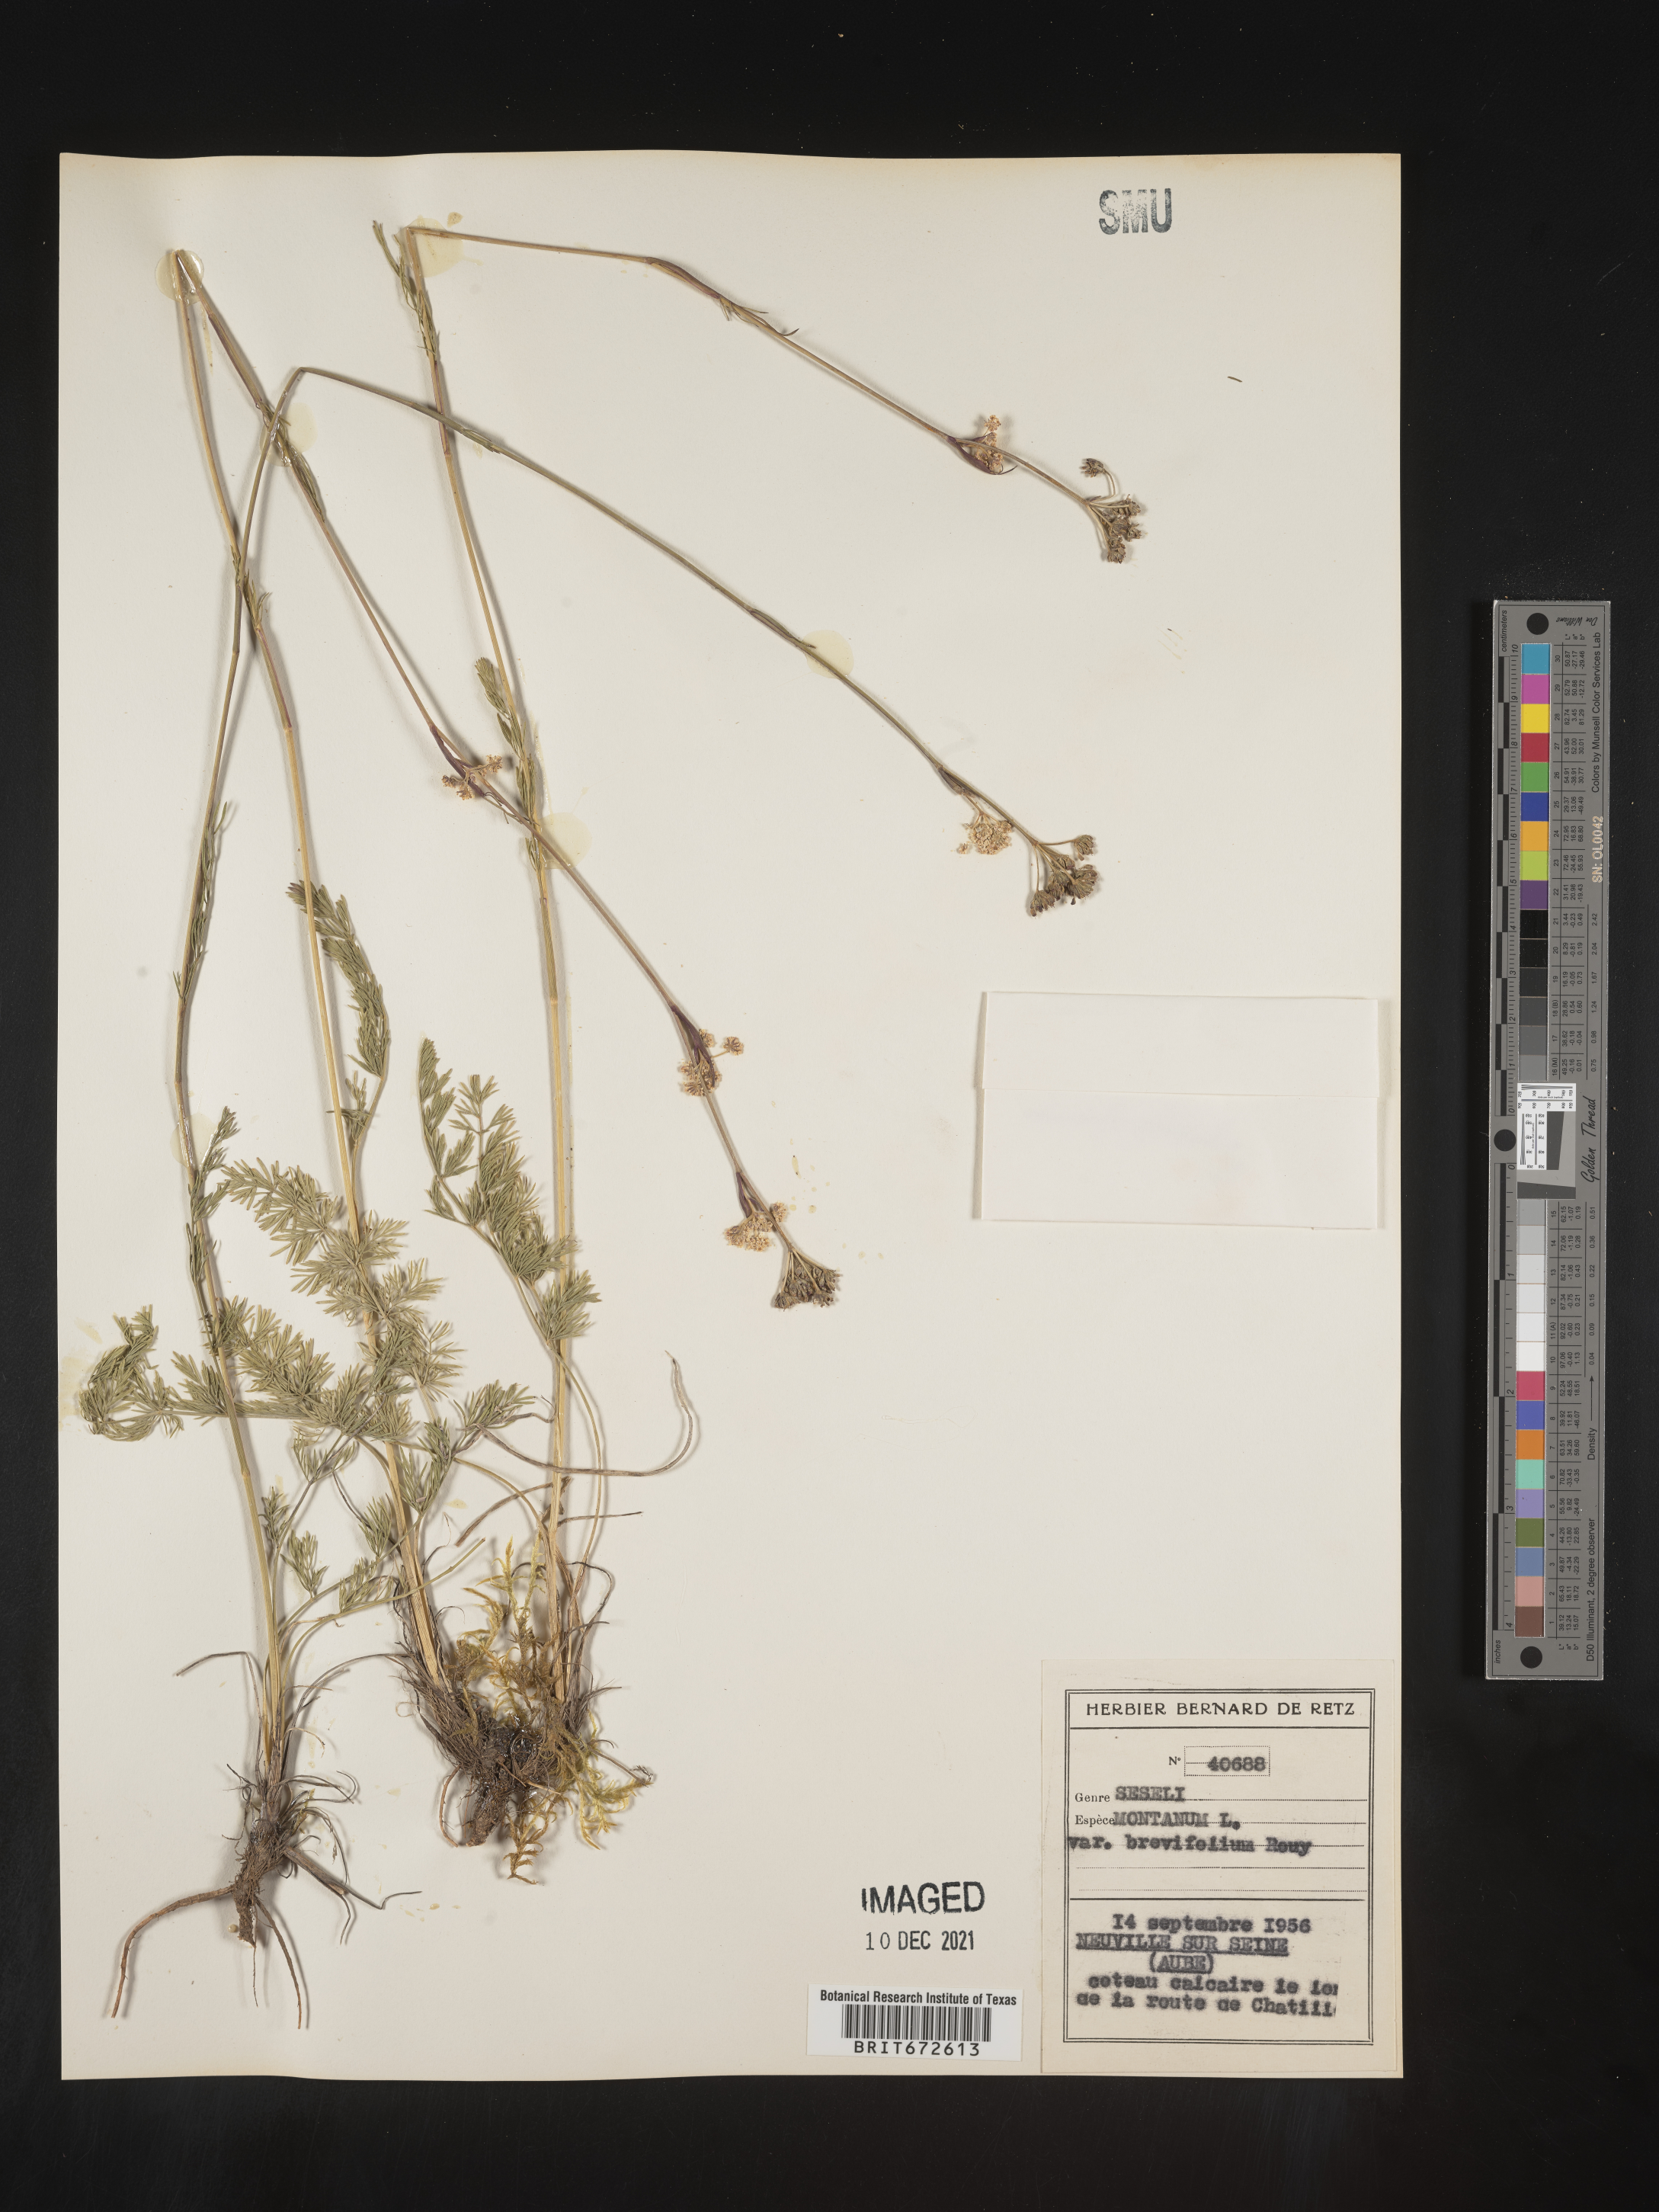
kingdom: Plantae
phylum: Tracheophyta
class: Magnoliopsida
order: Apiales
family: Apiaceae
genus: Seseli
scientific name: Seseli
